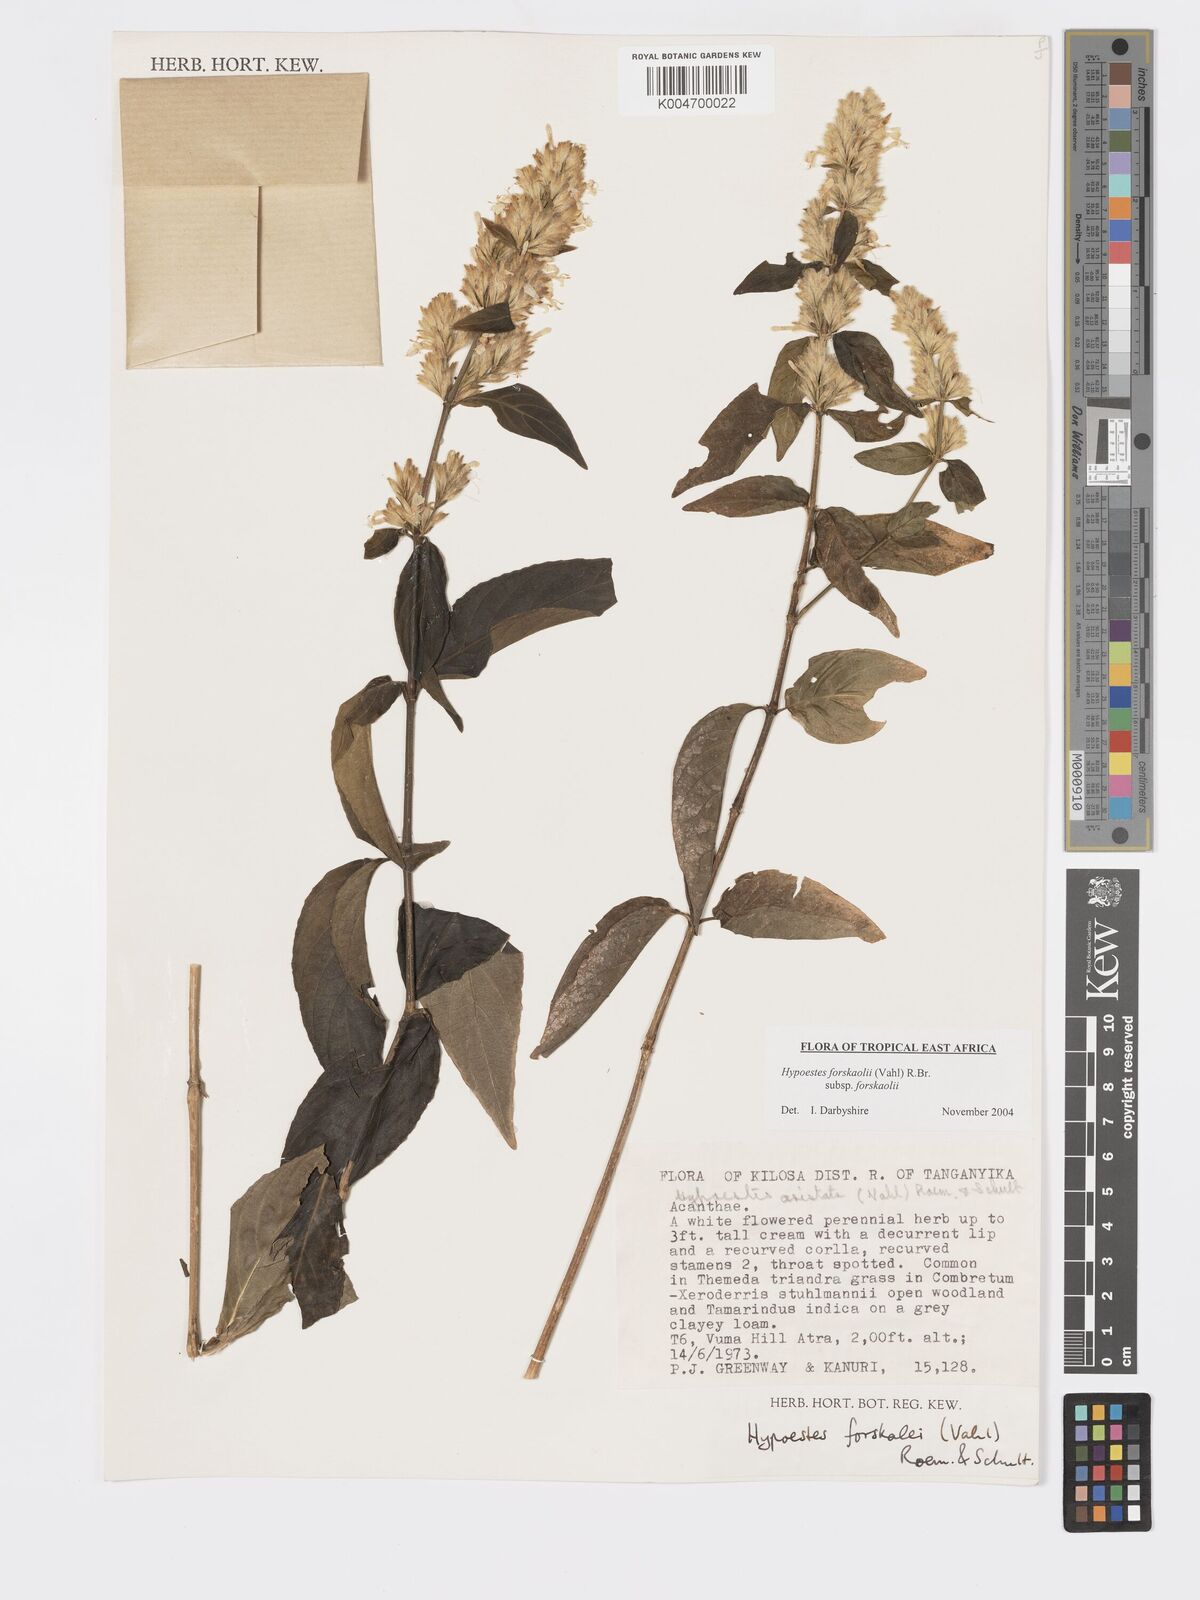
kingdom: Plantae
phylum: Tracheophyta
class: Magnoliopsida
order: Lamiales
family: Acanthaceae
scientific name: Acanthaceae
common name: Acanthaceae
